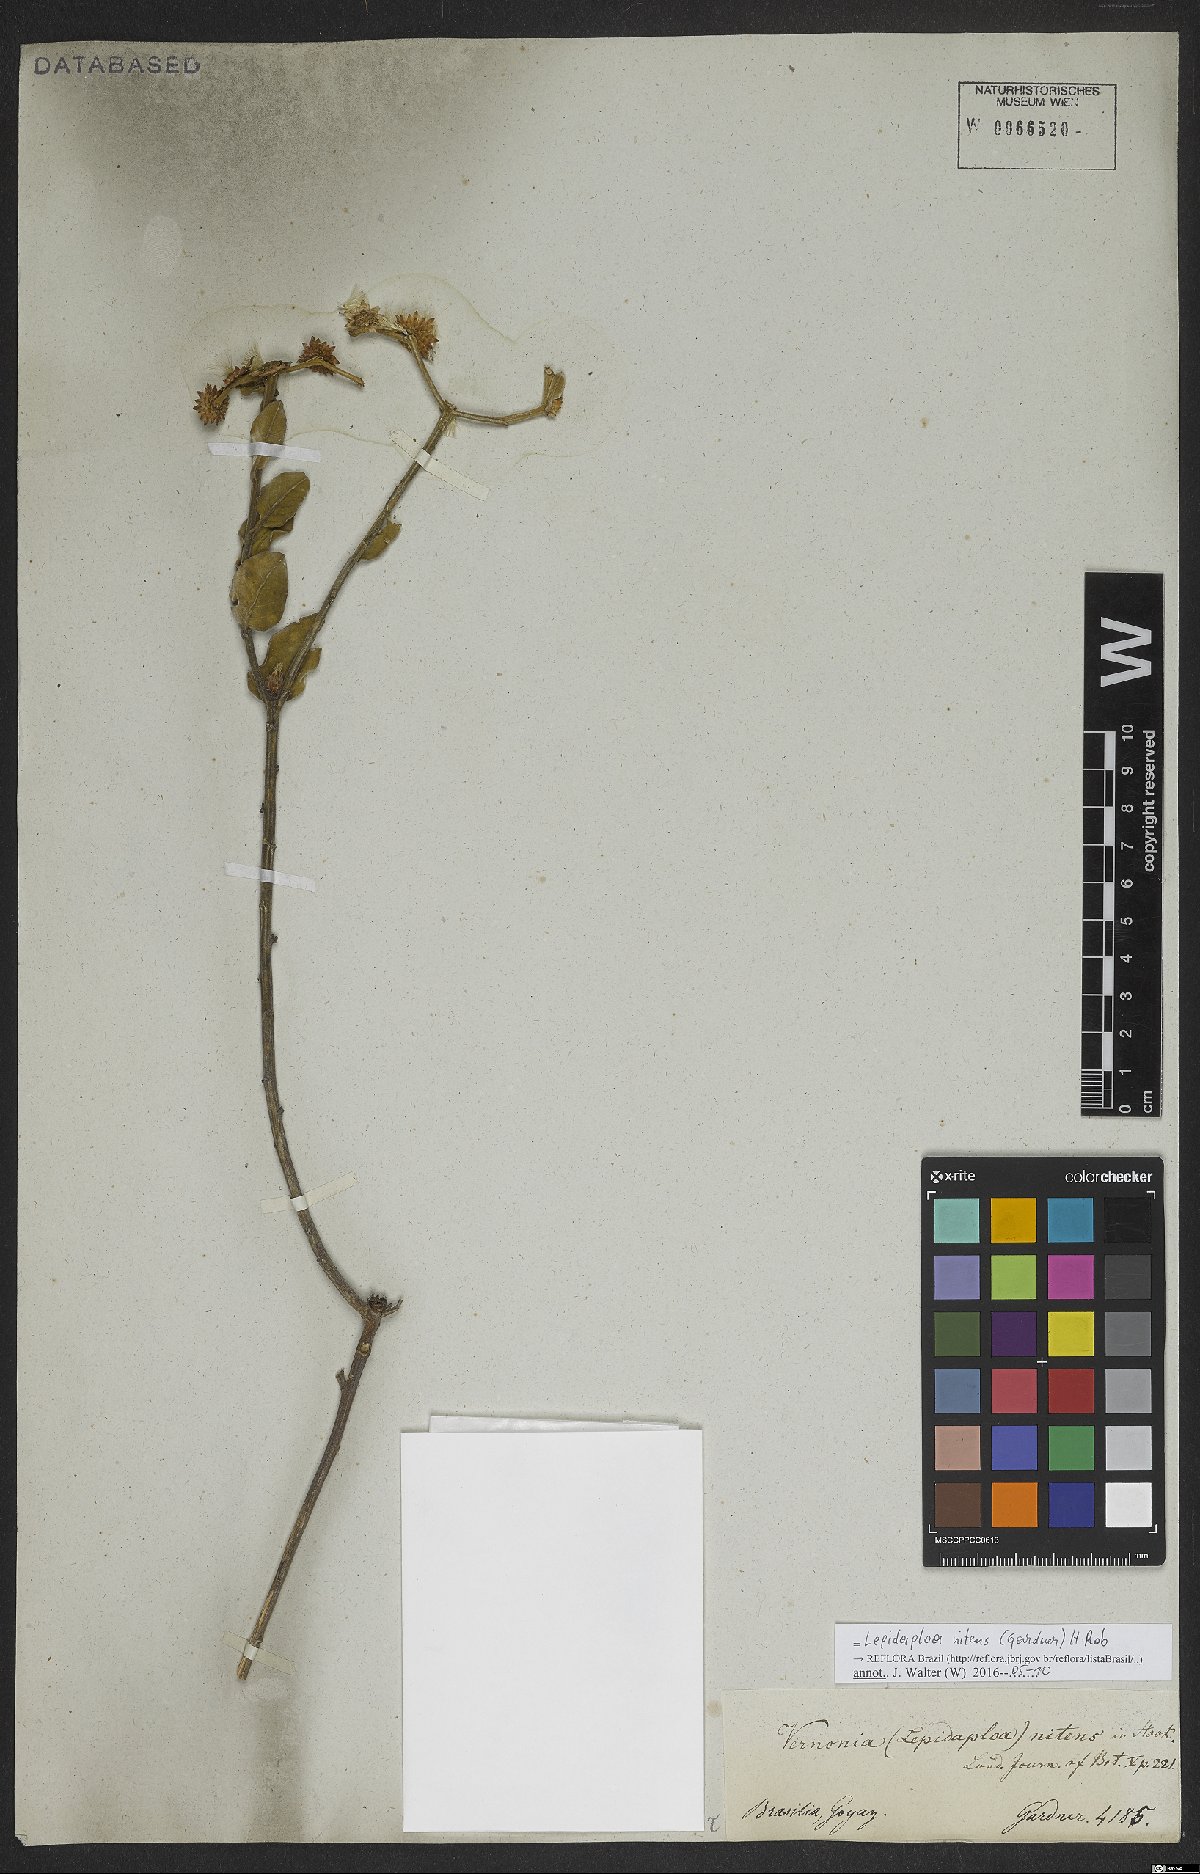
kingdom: Plantae
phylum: Tracheophyta
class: Magnoliopsida
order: Asterales
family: Asteraceae
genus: Lepidaploa
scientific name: Lepidaploa nitens
